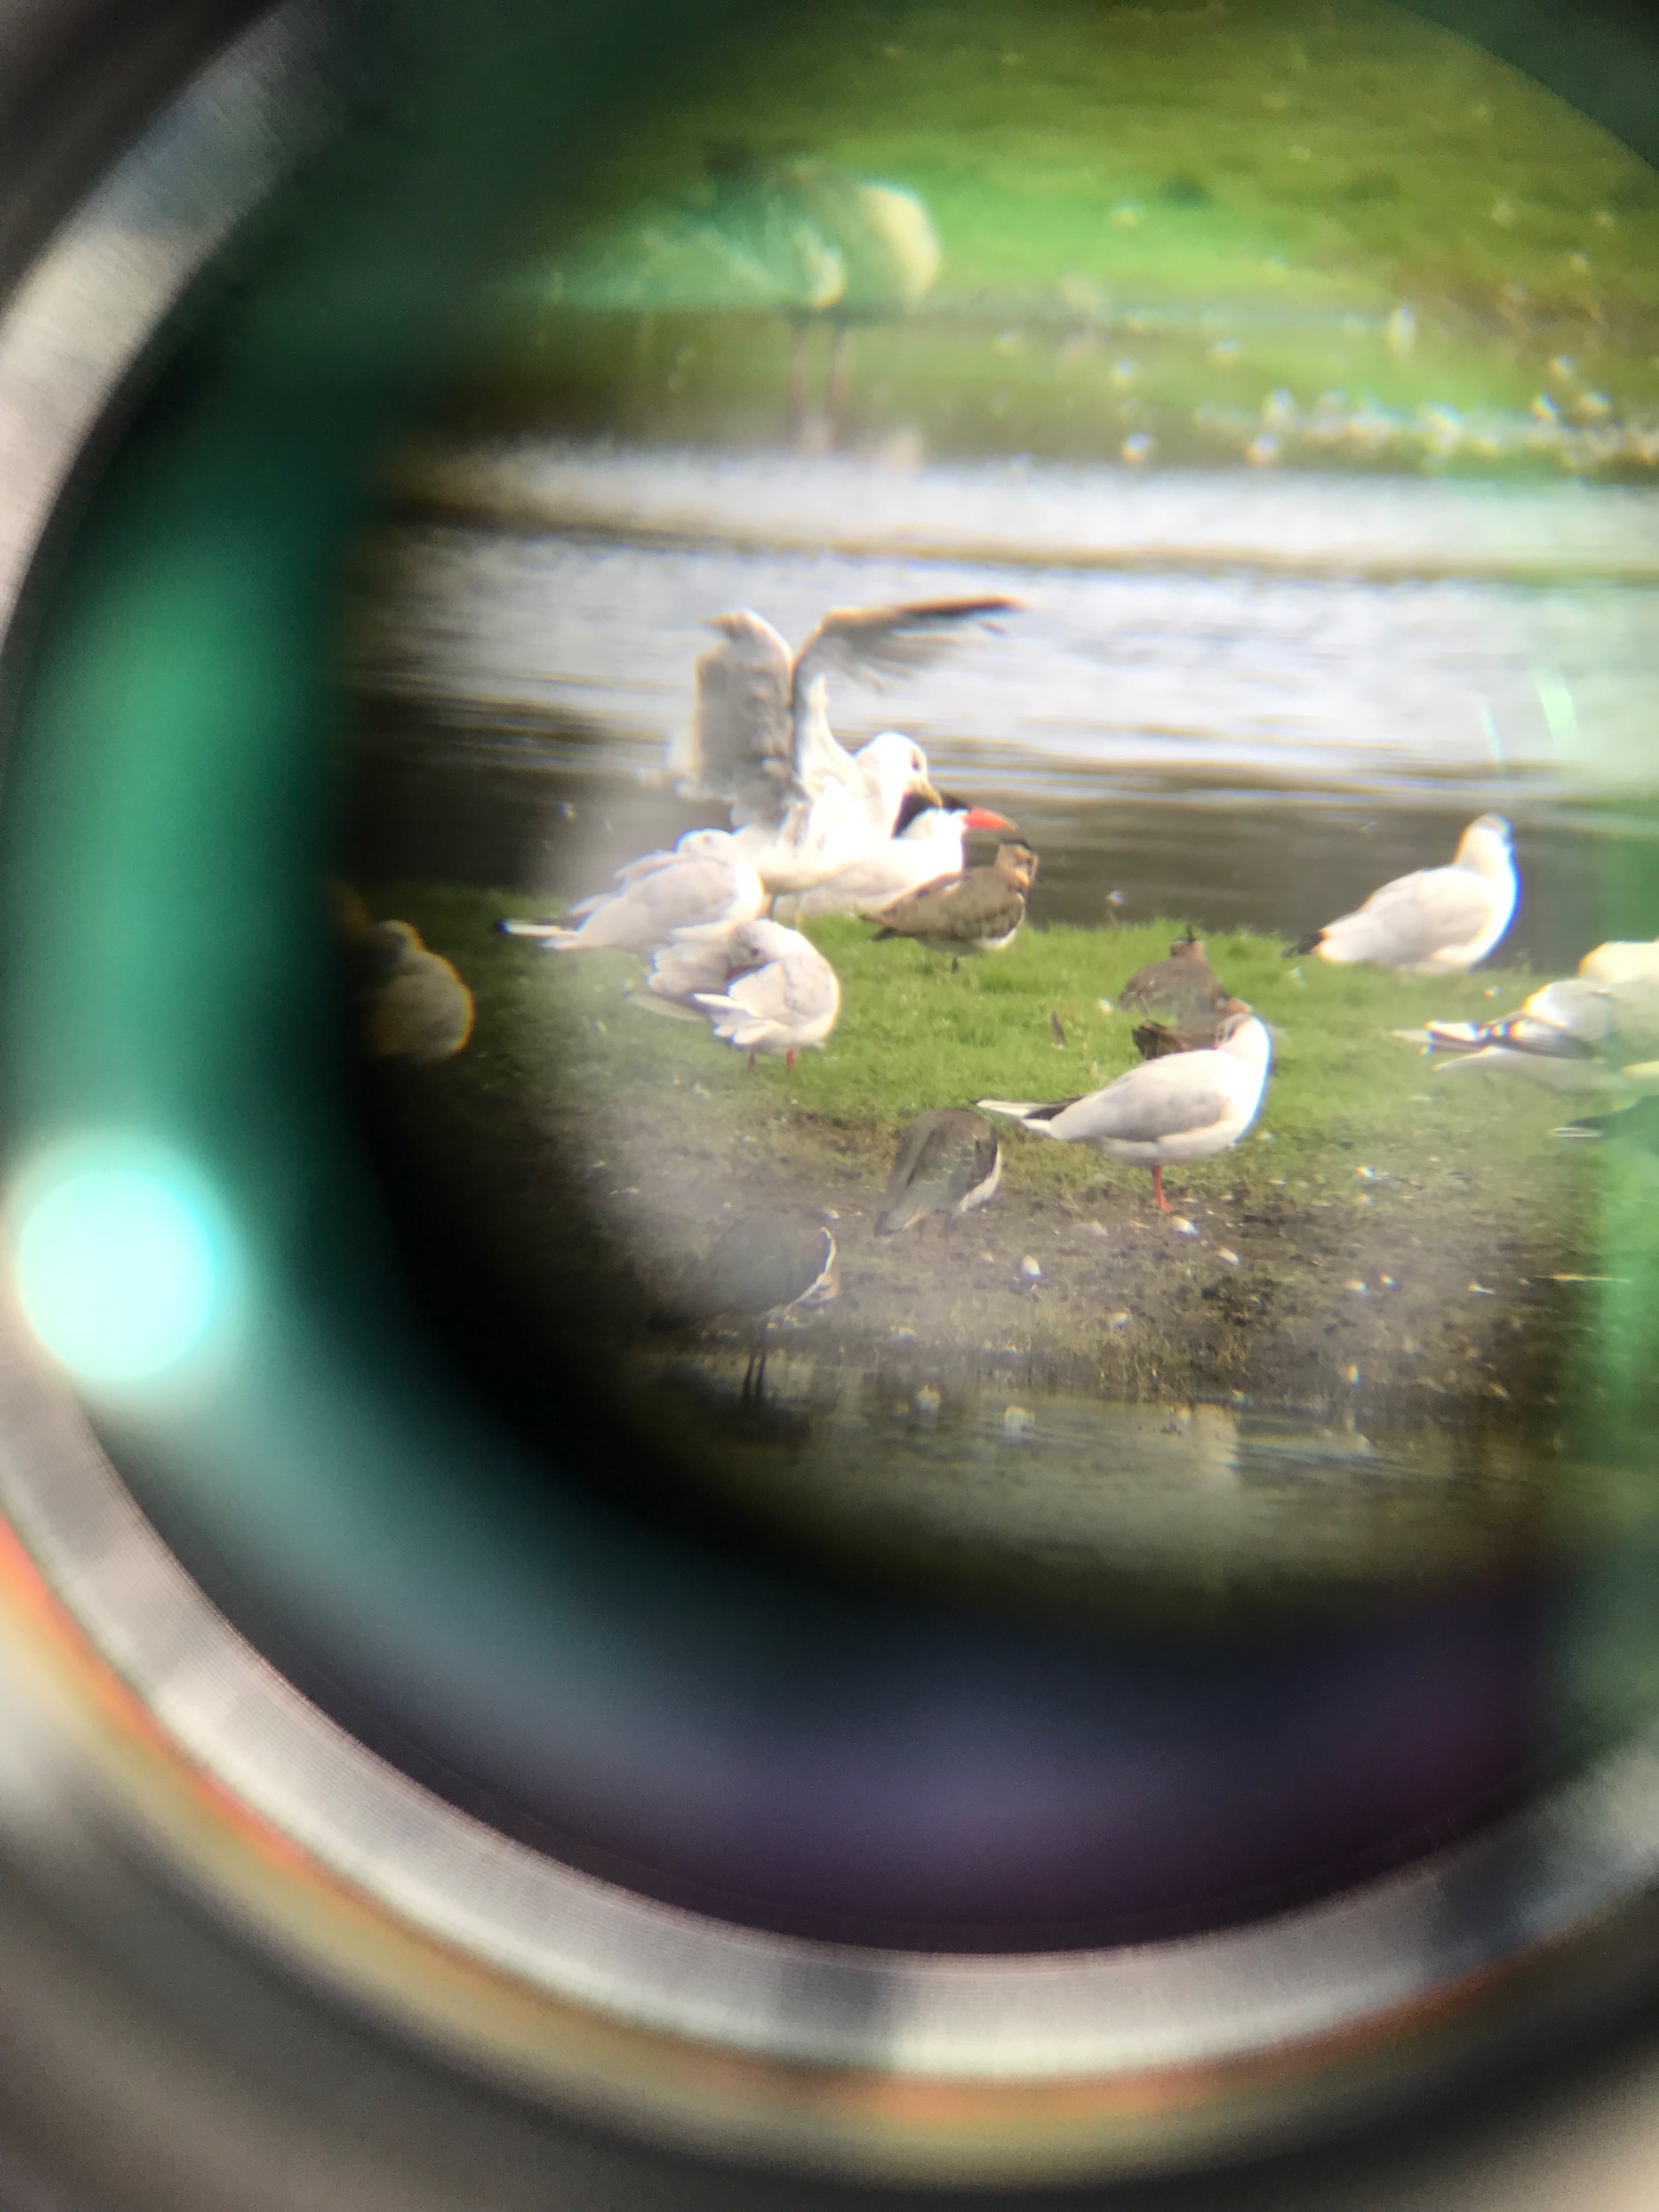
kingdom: Animalia
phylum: Chordata
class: Aves
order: Charadriiformes
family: Laridae
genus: Hydroprogne
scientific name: Hydroprogne caspia
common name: Rovterne
